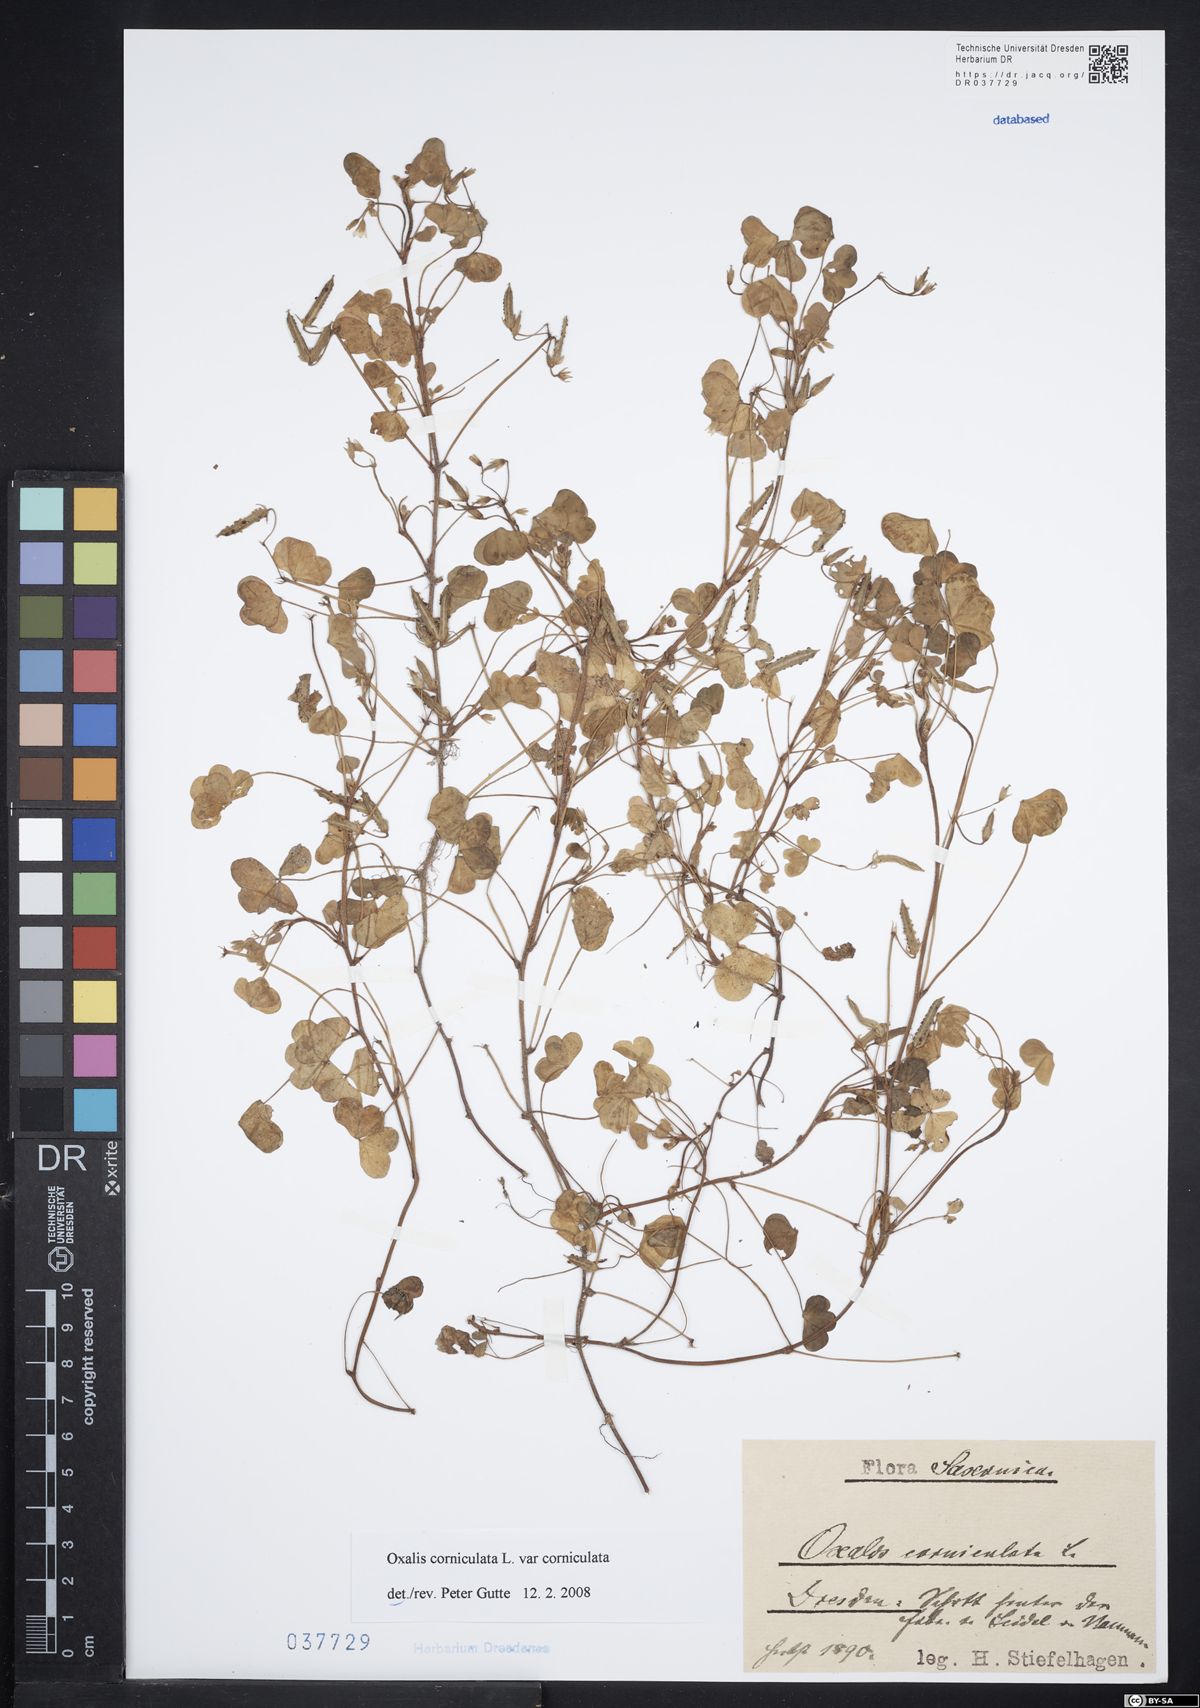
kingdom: Plantae
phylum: Tracheophyta
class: Magnoliopsida
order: Oxalidales
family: Oxalidaceae
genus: Oxalis
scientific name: Oxalis corniculata
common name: Procumbent yellow-sorrel
